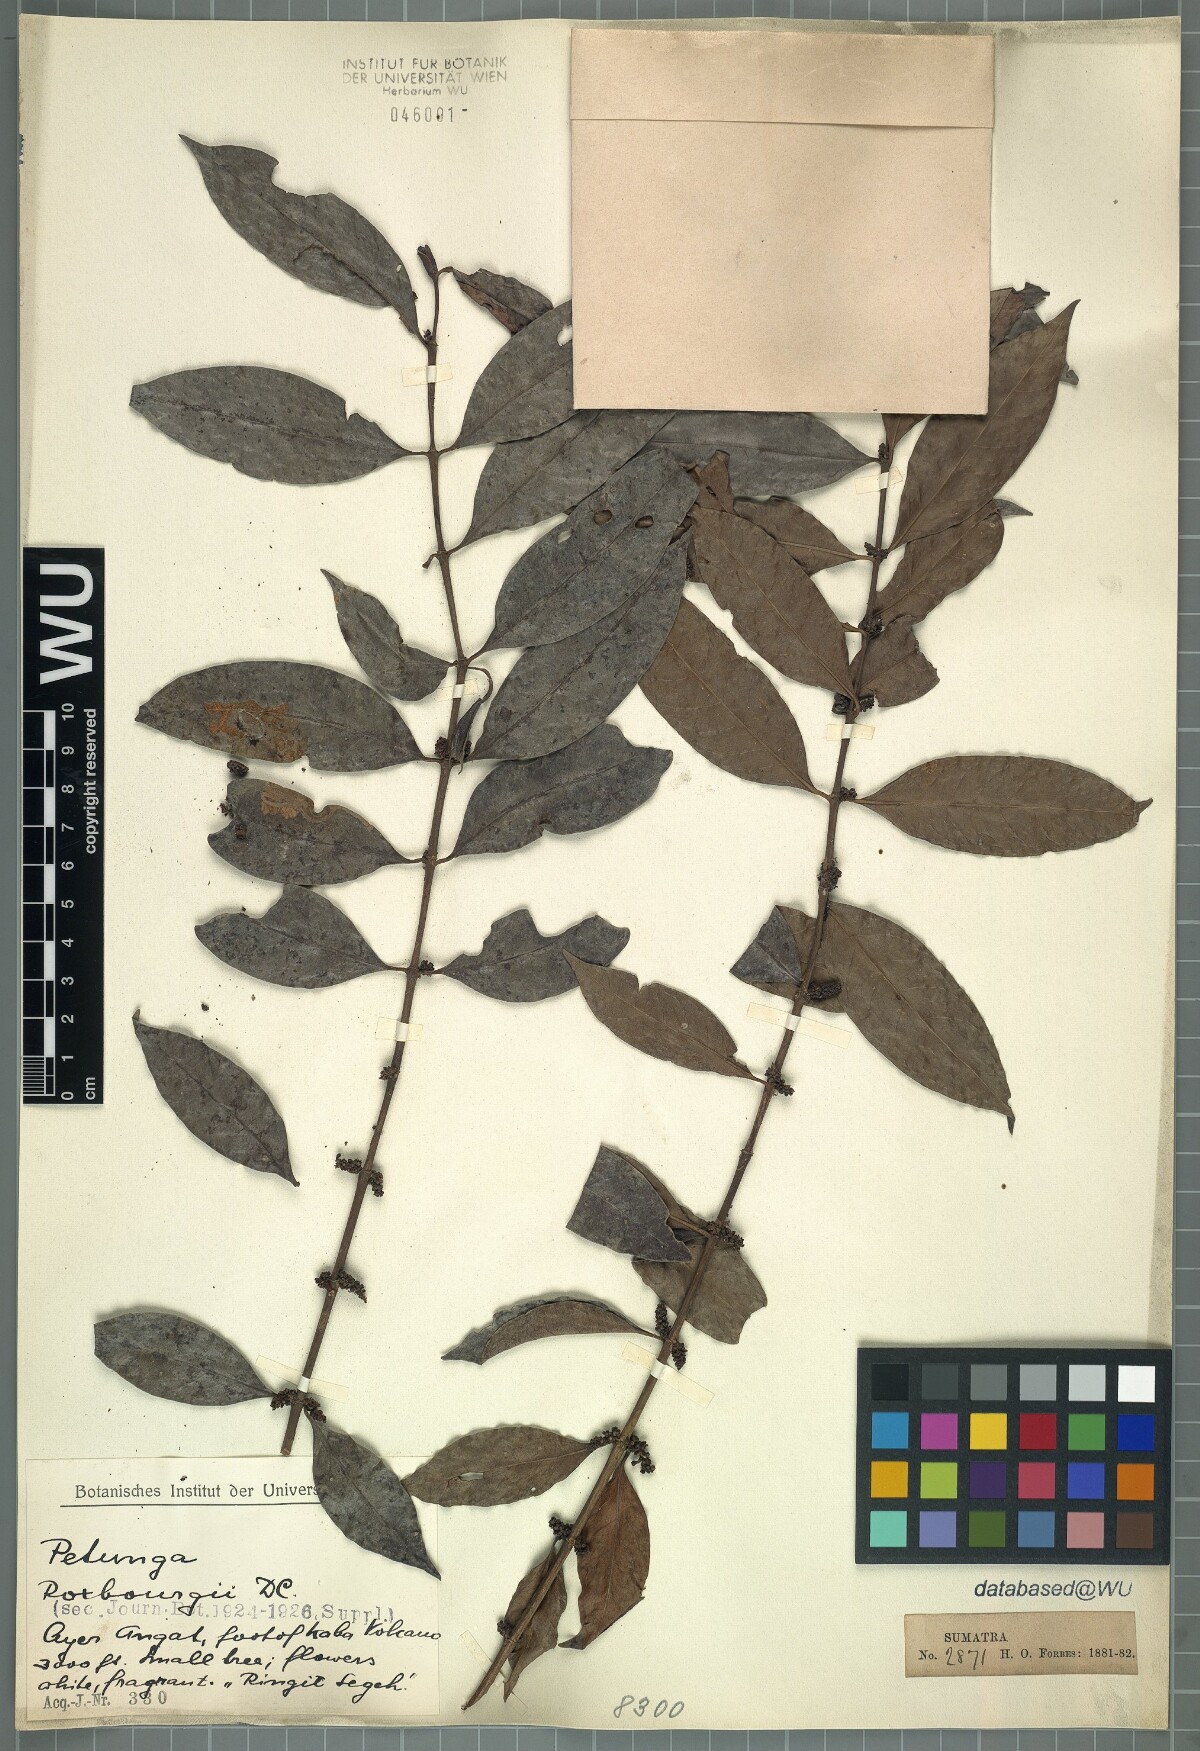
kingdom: Plantae
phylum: Tracheophyta
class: Magnoliopsida
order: Gentianales
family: Rubiaceae
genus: Hypobathrum
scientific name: Hypobathrum racemosum
